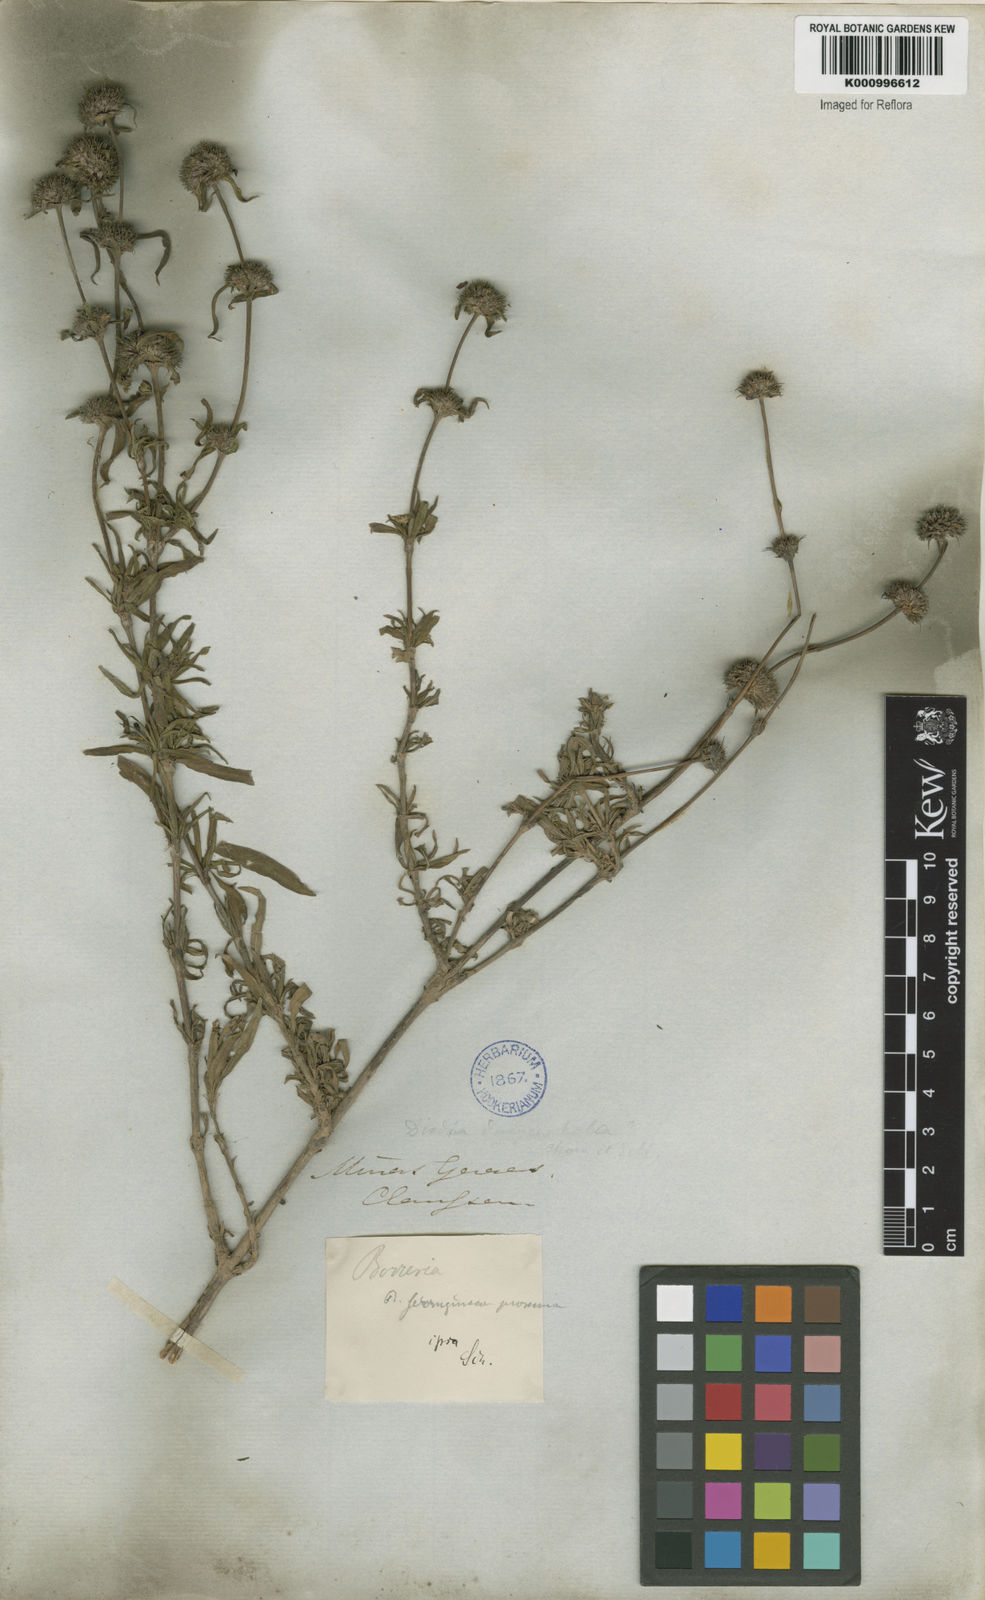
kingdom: Plantae
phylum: Tracheophyta
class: Magnoliopsida
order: Gentianales
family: Rubiaceae
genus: Spermacoce
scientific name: Spermacoce capitata
